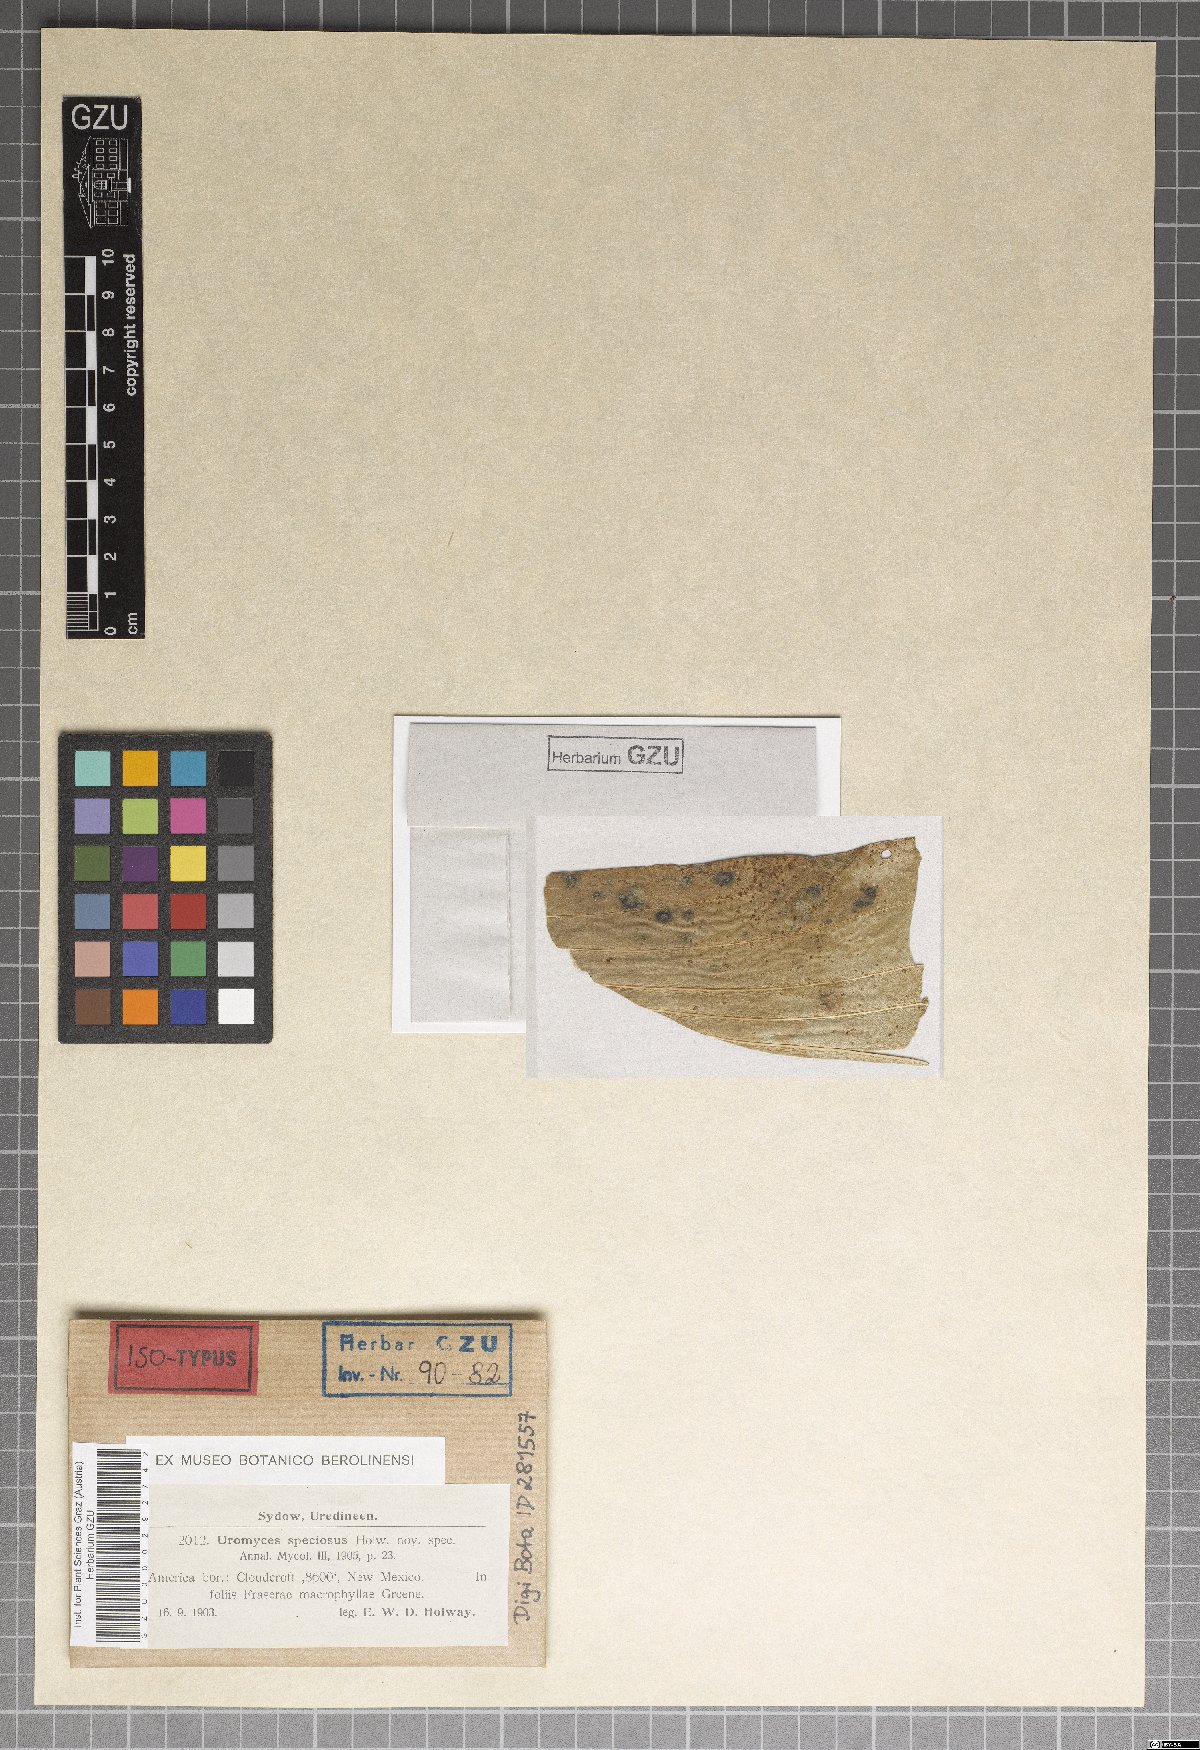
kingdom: Fungi
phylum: Basidiomycota
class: Pucciniomycetes
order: Pucciniales
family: Pucciniaceae
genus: Uromyces
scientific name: Uromyces speciosus
